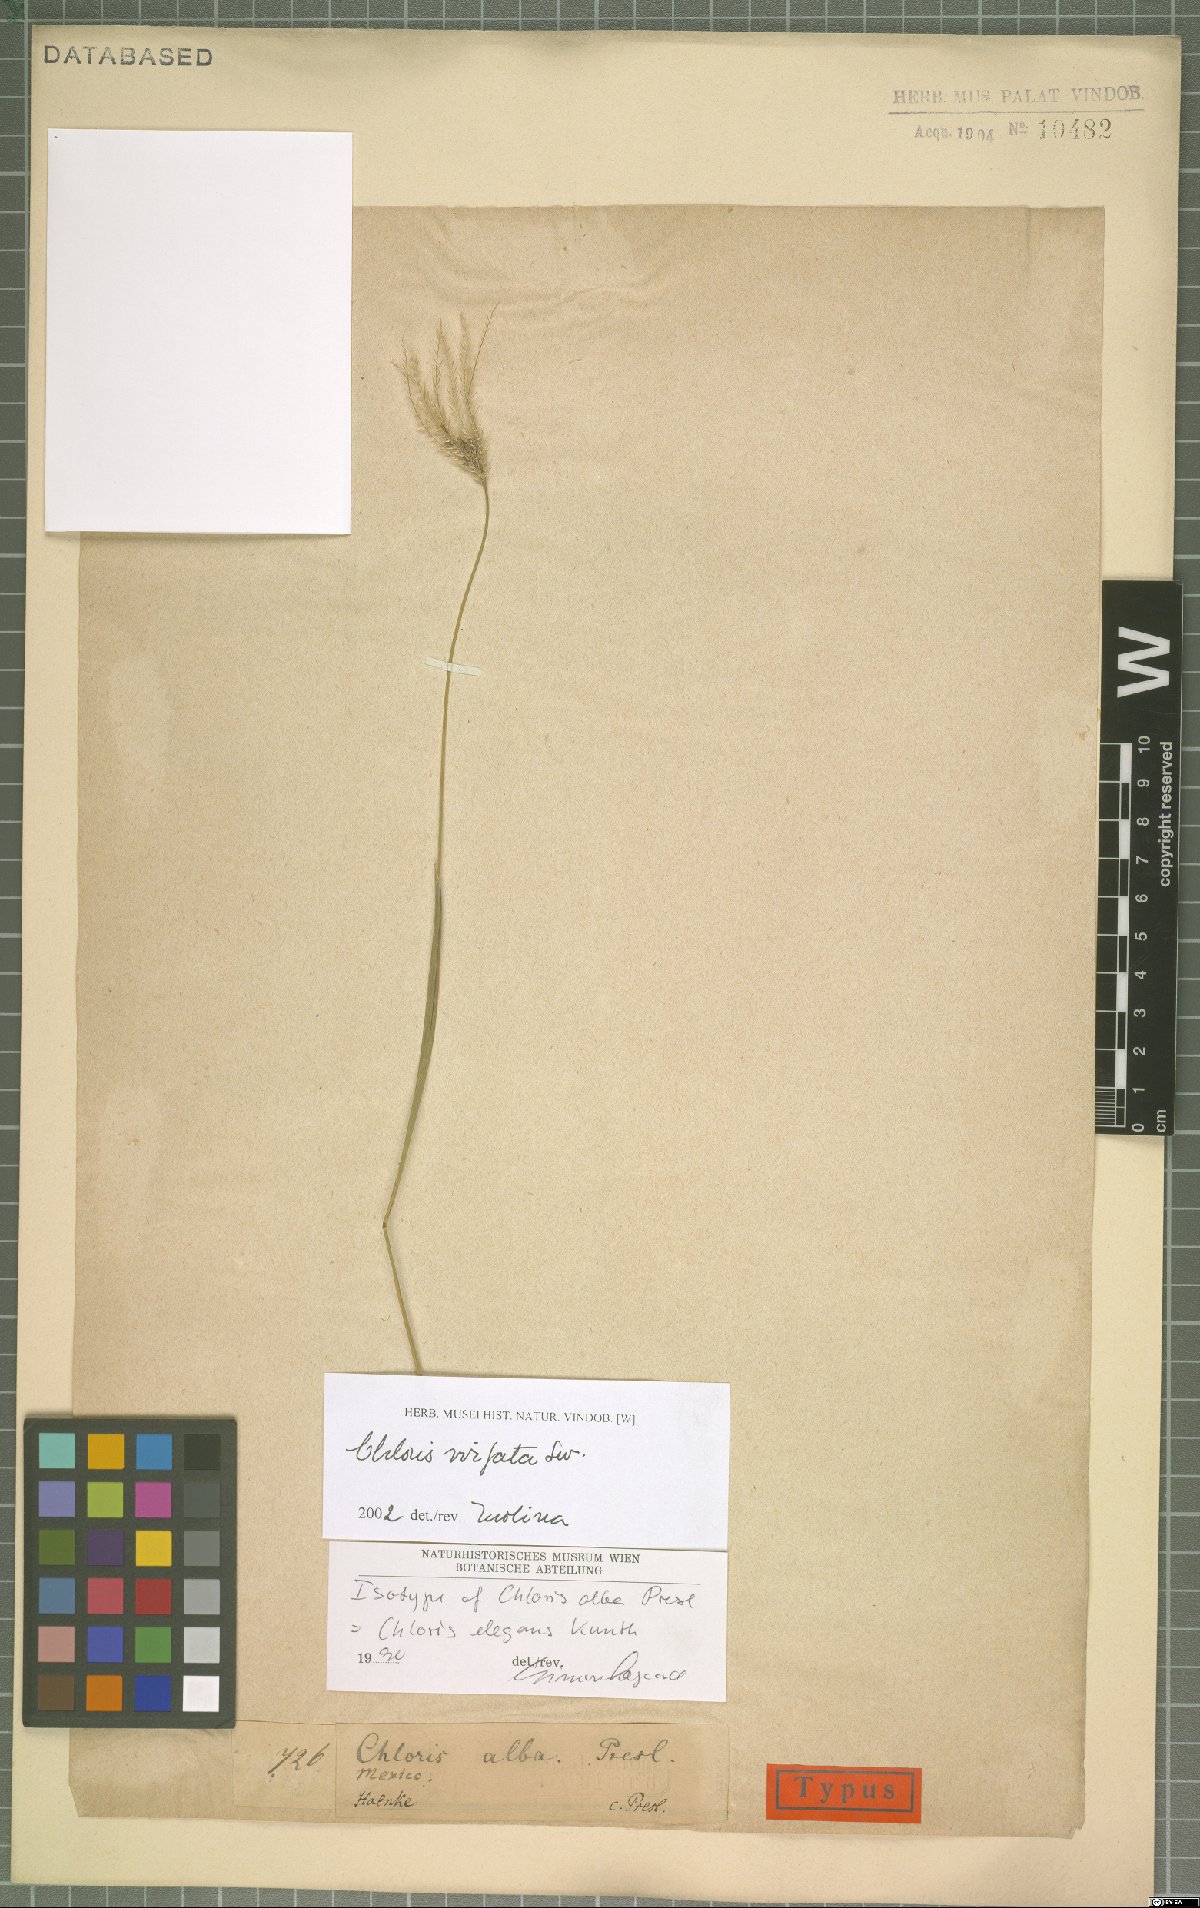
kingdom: Plantae
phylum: Tracheophyta
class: Liliopsida
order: Poales
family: Poaceae
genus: Chloris
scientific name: Chloris virgata
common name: Feathery rhodes-grass
